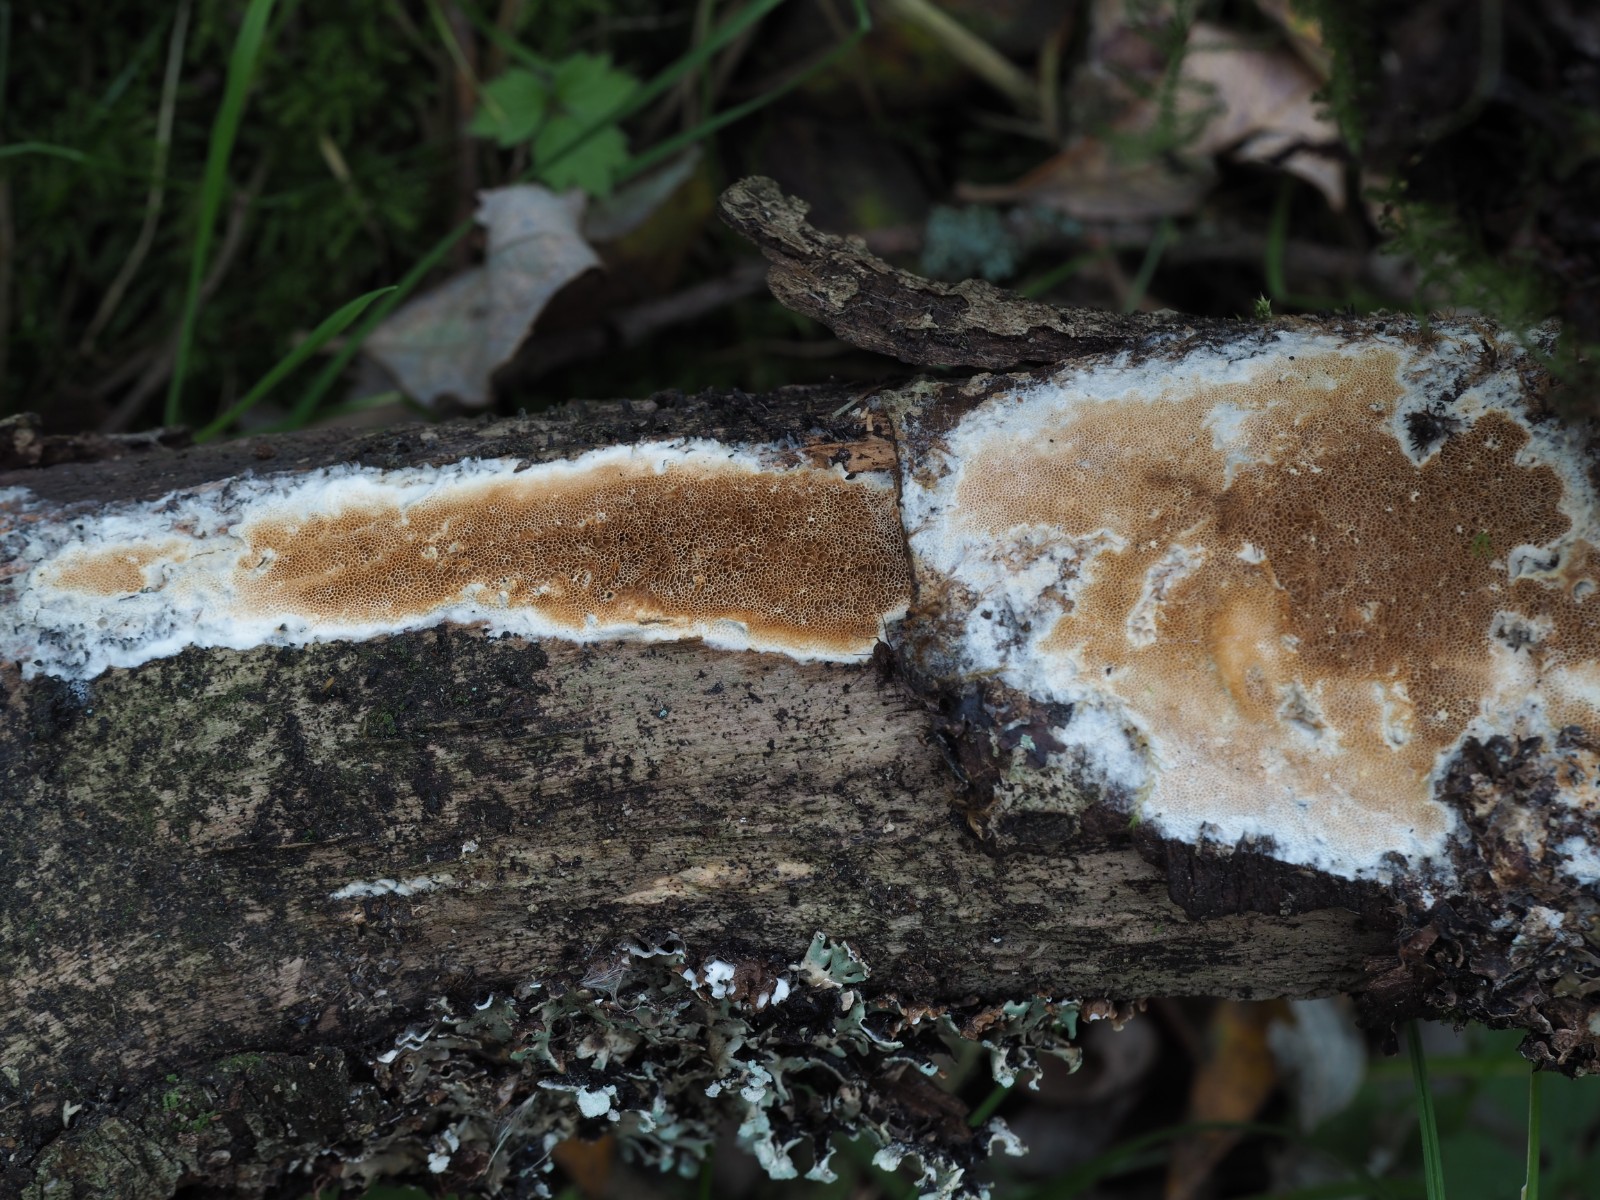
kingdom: Fungi
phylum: Basidiomycota
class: Agaricomycetes
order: Polyporales
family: Irpicaceae
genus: Resiniporus
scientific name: Resiniporus resinascens
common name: trist pastelporesvamp
